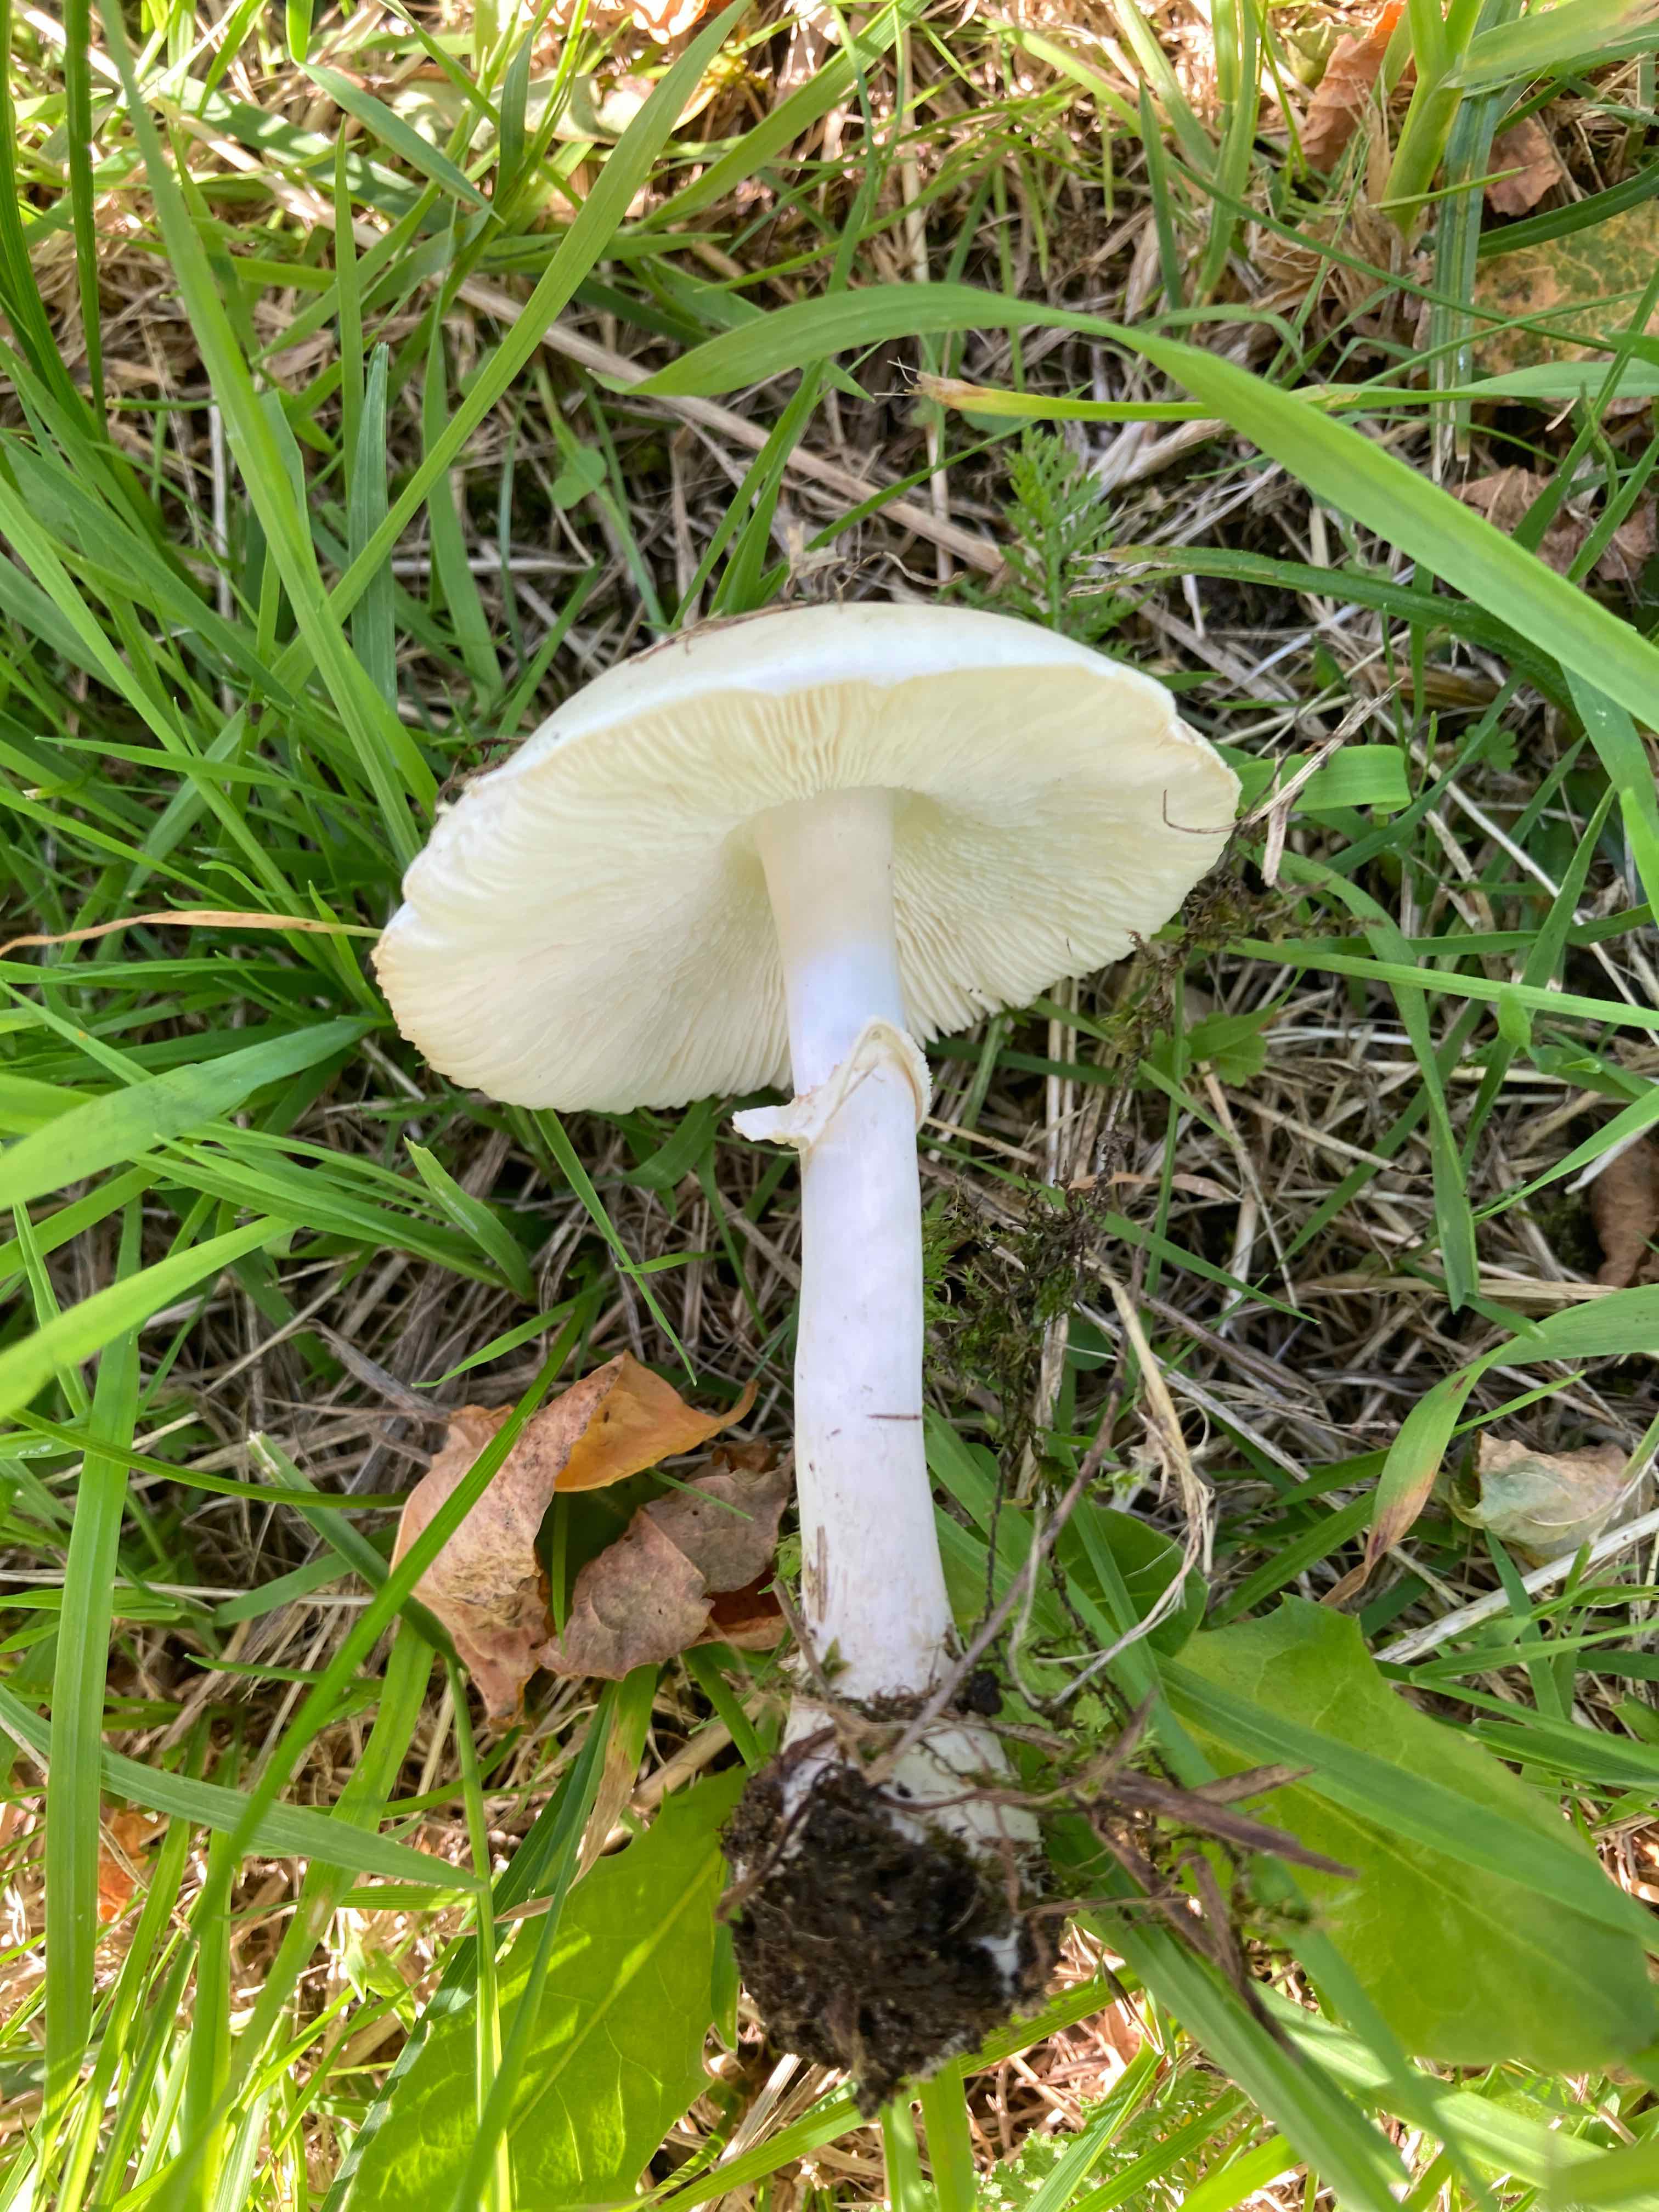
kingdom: Fungi
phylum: Basidiomycota
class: Agaricomycetes
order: Agaricales
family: Agaricaceae
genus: Leucoagaricus
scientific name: Leucoagaricus leucothites
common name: rosabladet silkehat
